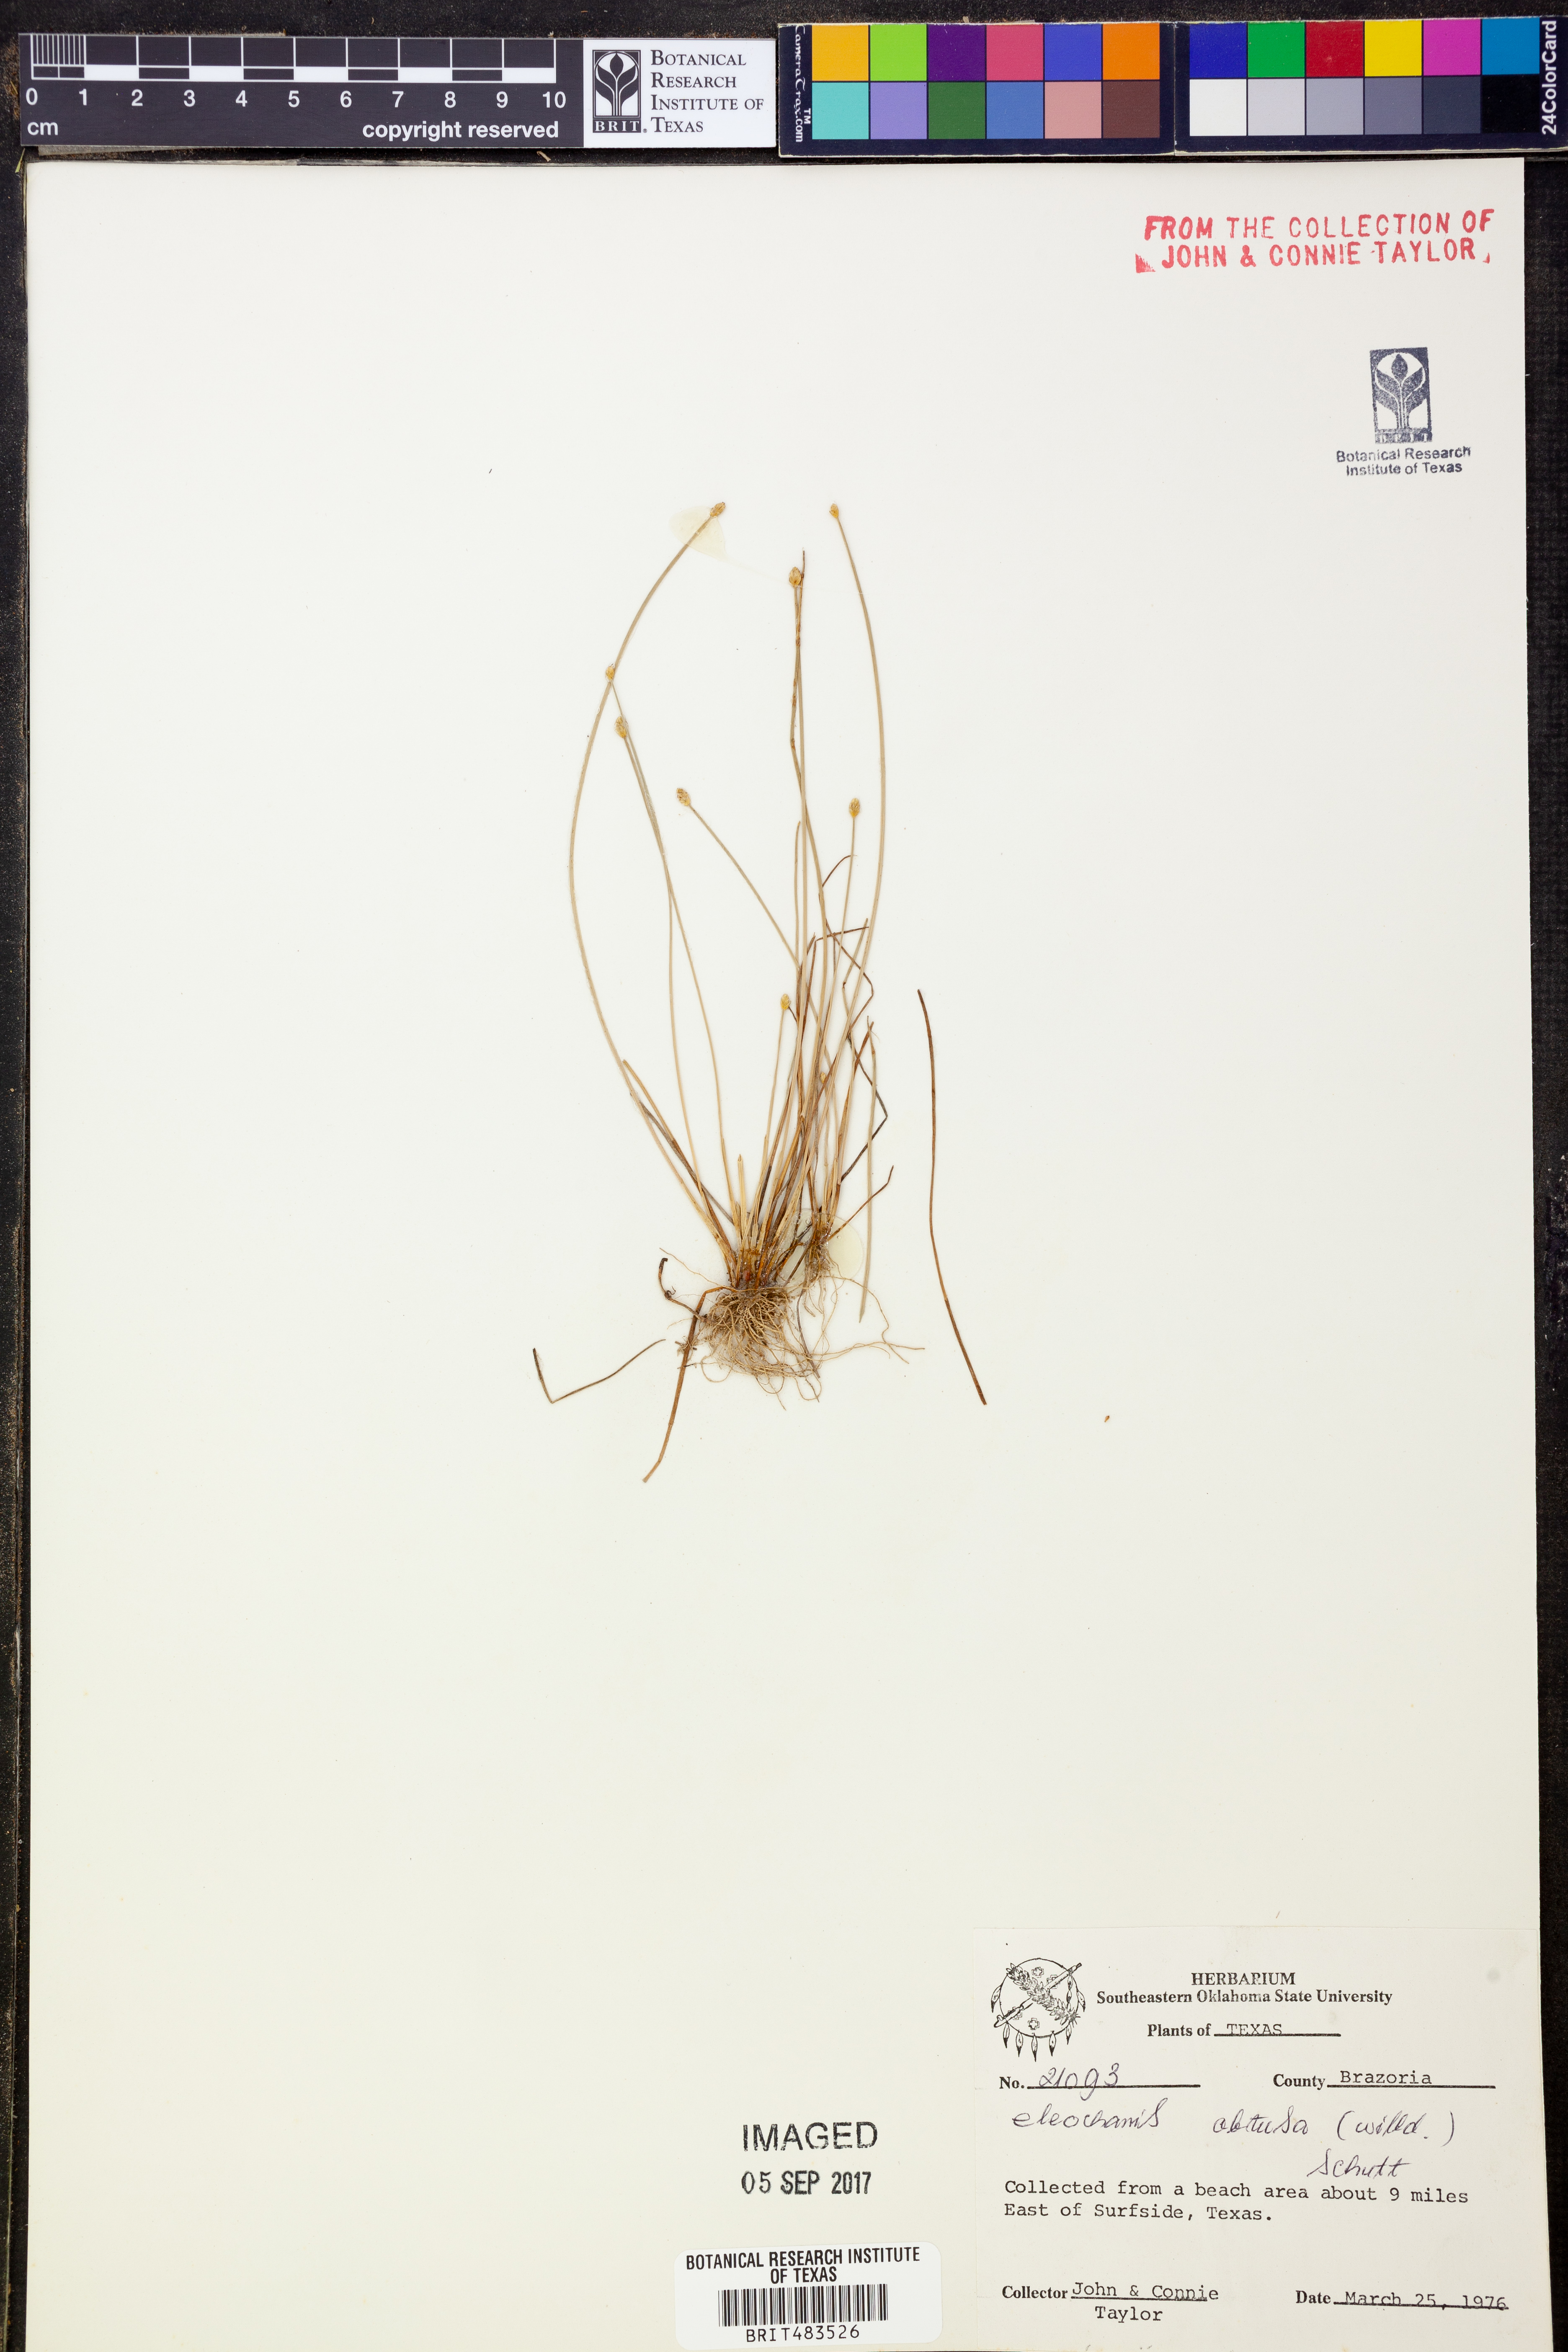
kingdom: Plantae
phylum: Tracheophyta
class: Liliopsida
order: Poales
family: Cyperaceae
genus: Eleocharis
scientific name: Eleocharis obtusa
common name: Blunt spikerush
